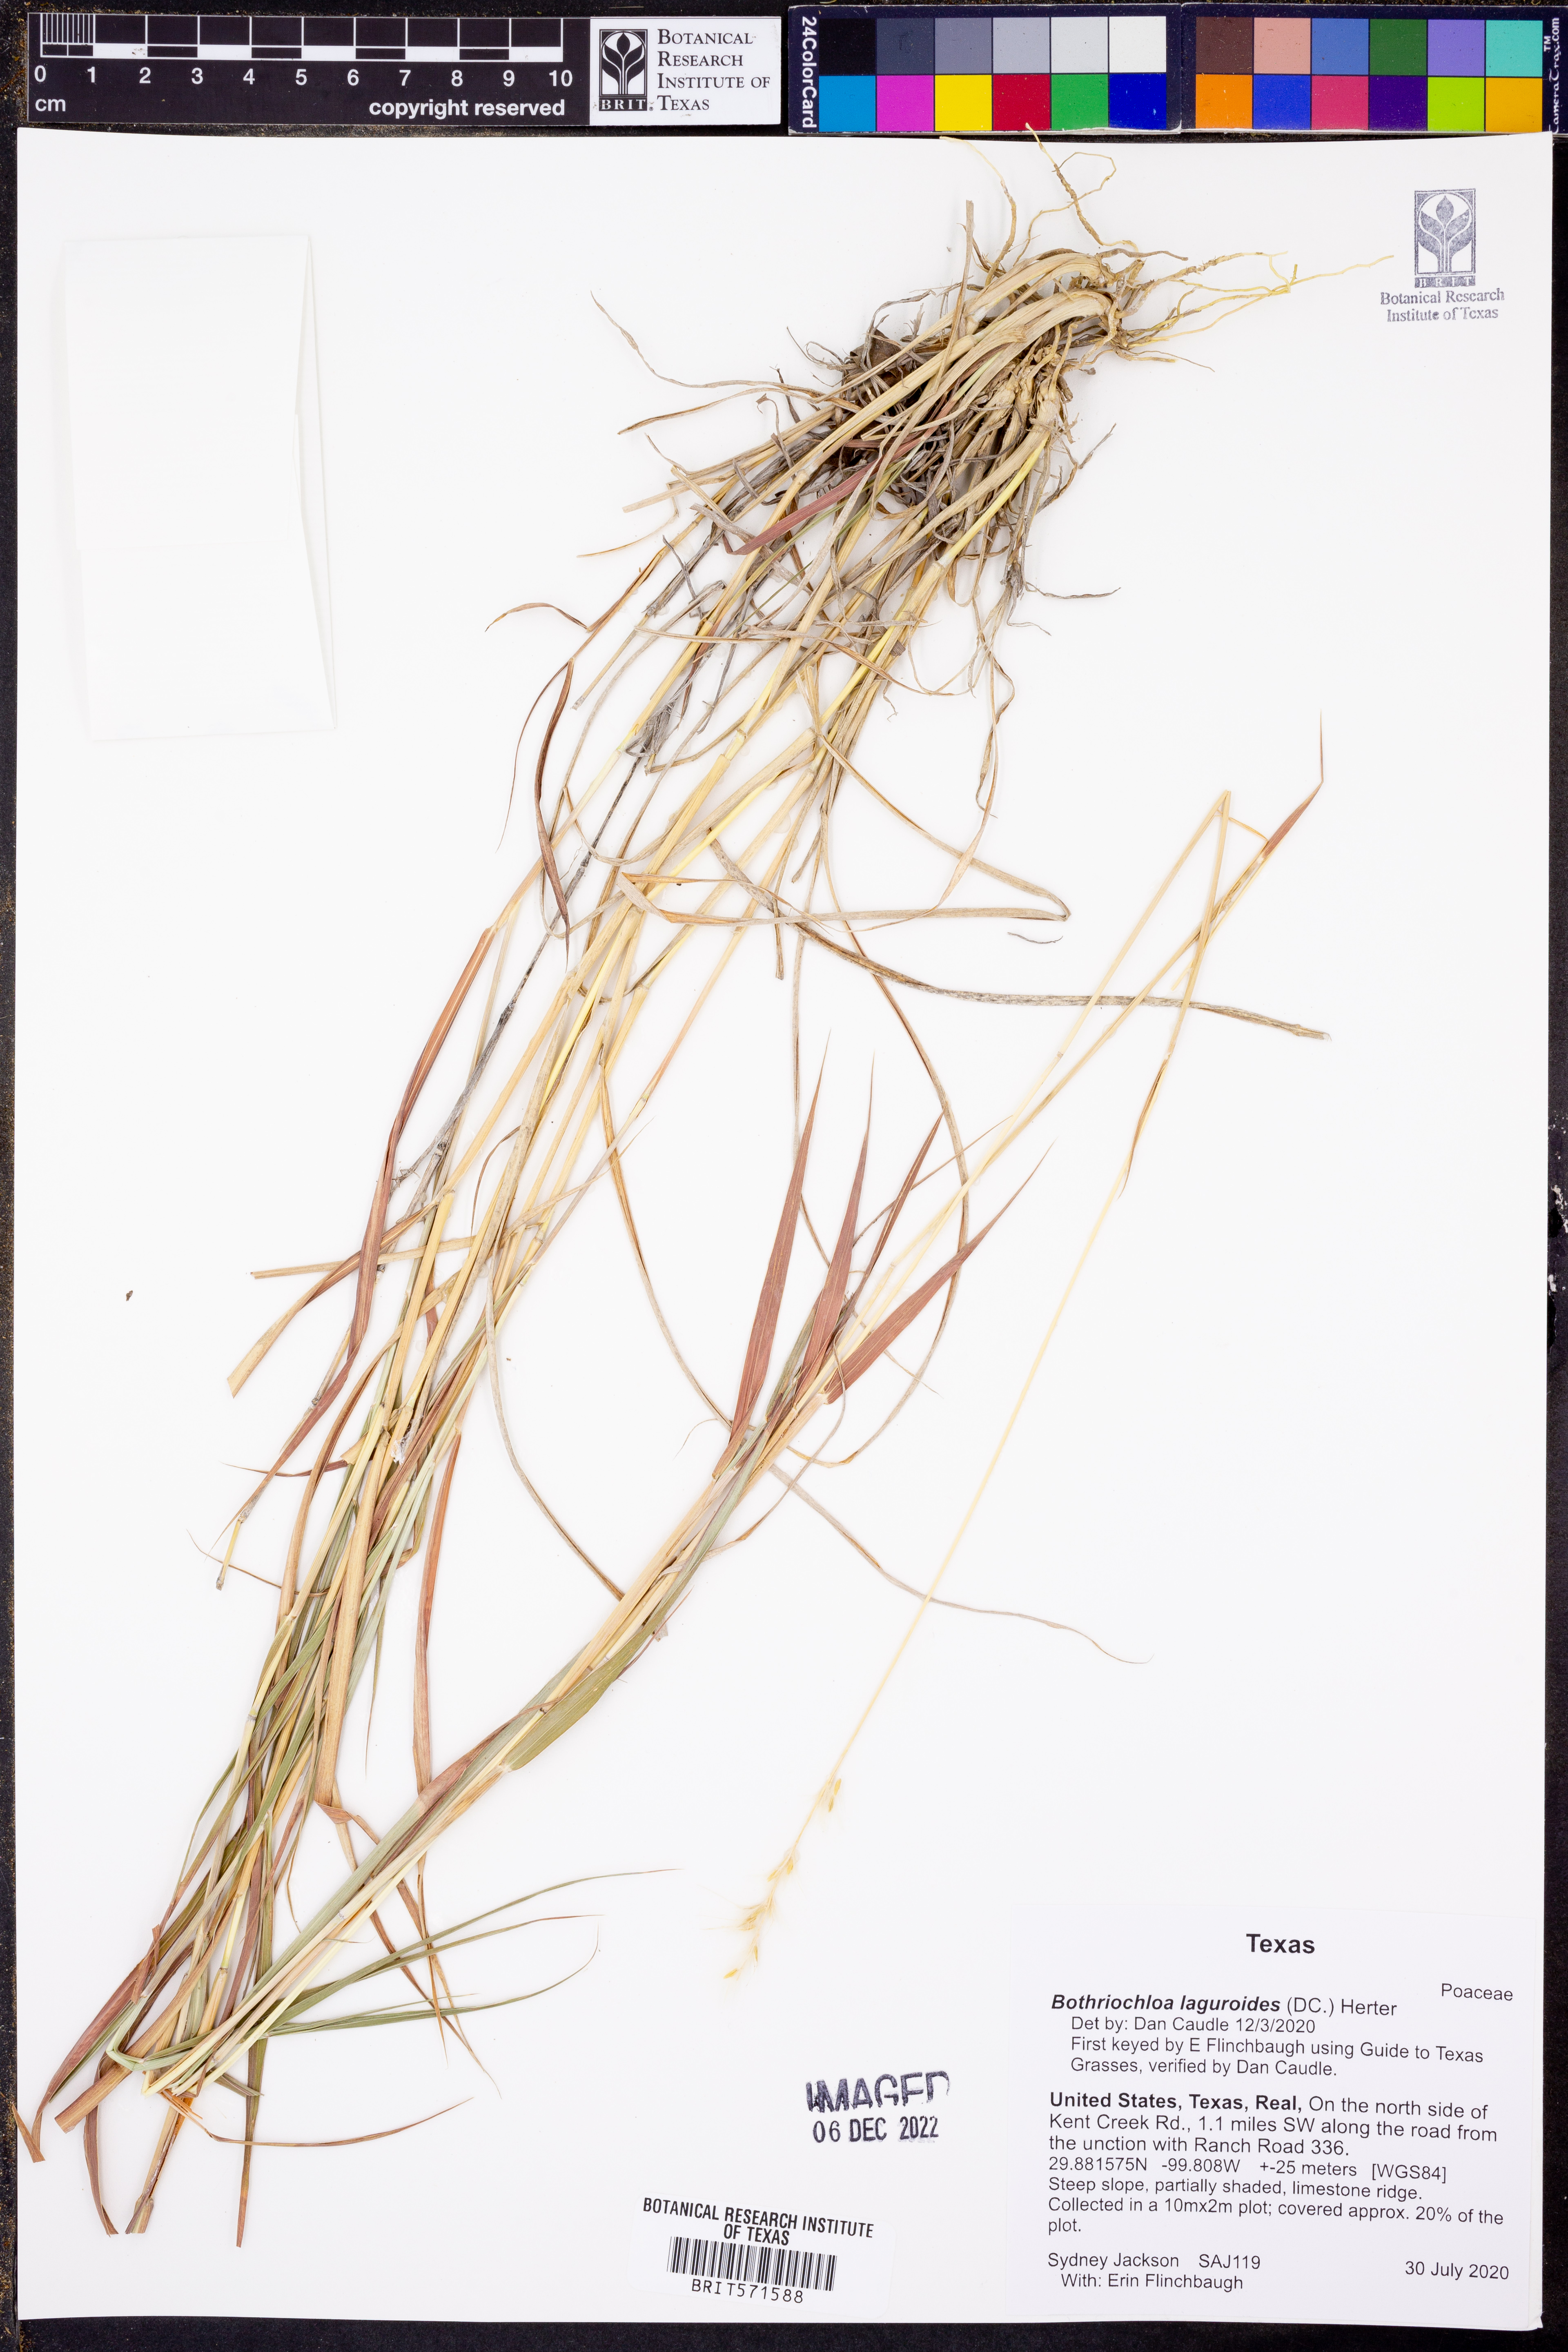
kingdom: Plantae
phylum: Tracheophyta
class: Liliopsida
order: Poales
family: Poaceae
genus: Bothriochloa
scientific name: Bothriochloa laguroides
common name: Silver bluestem
